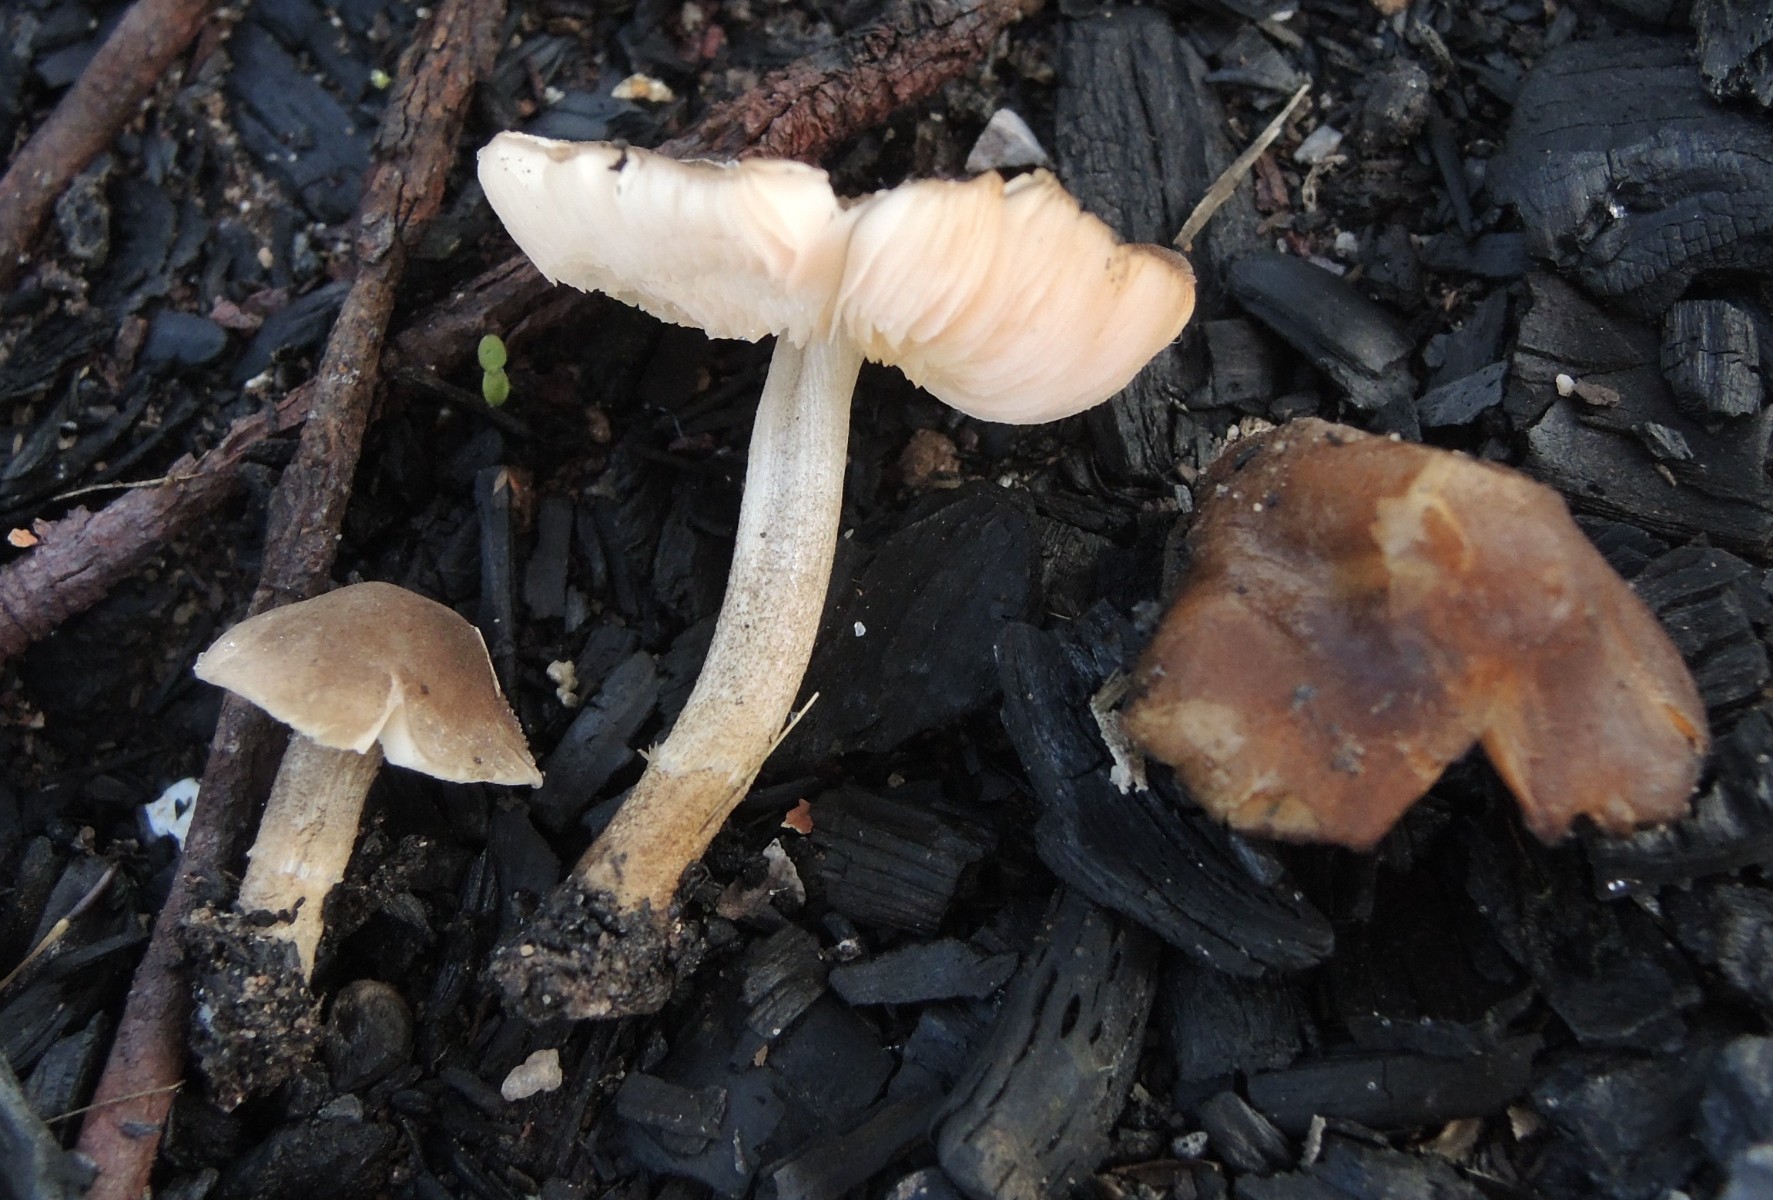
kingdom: Fungi
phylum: Basidiomycota
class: Agaricomycetes
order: Agaricales
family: Pluteaceae
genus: Pluteus
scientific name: Pluteus podospileus
